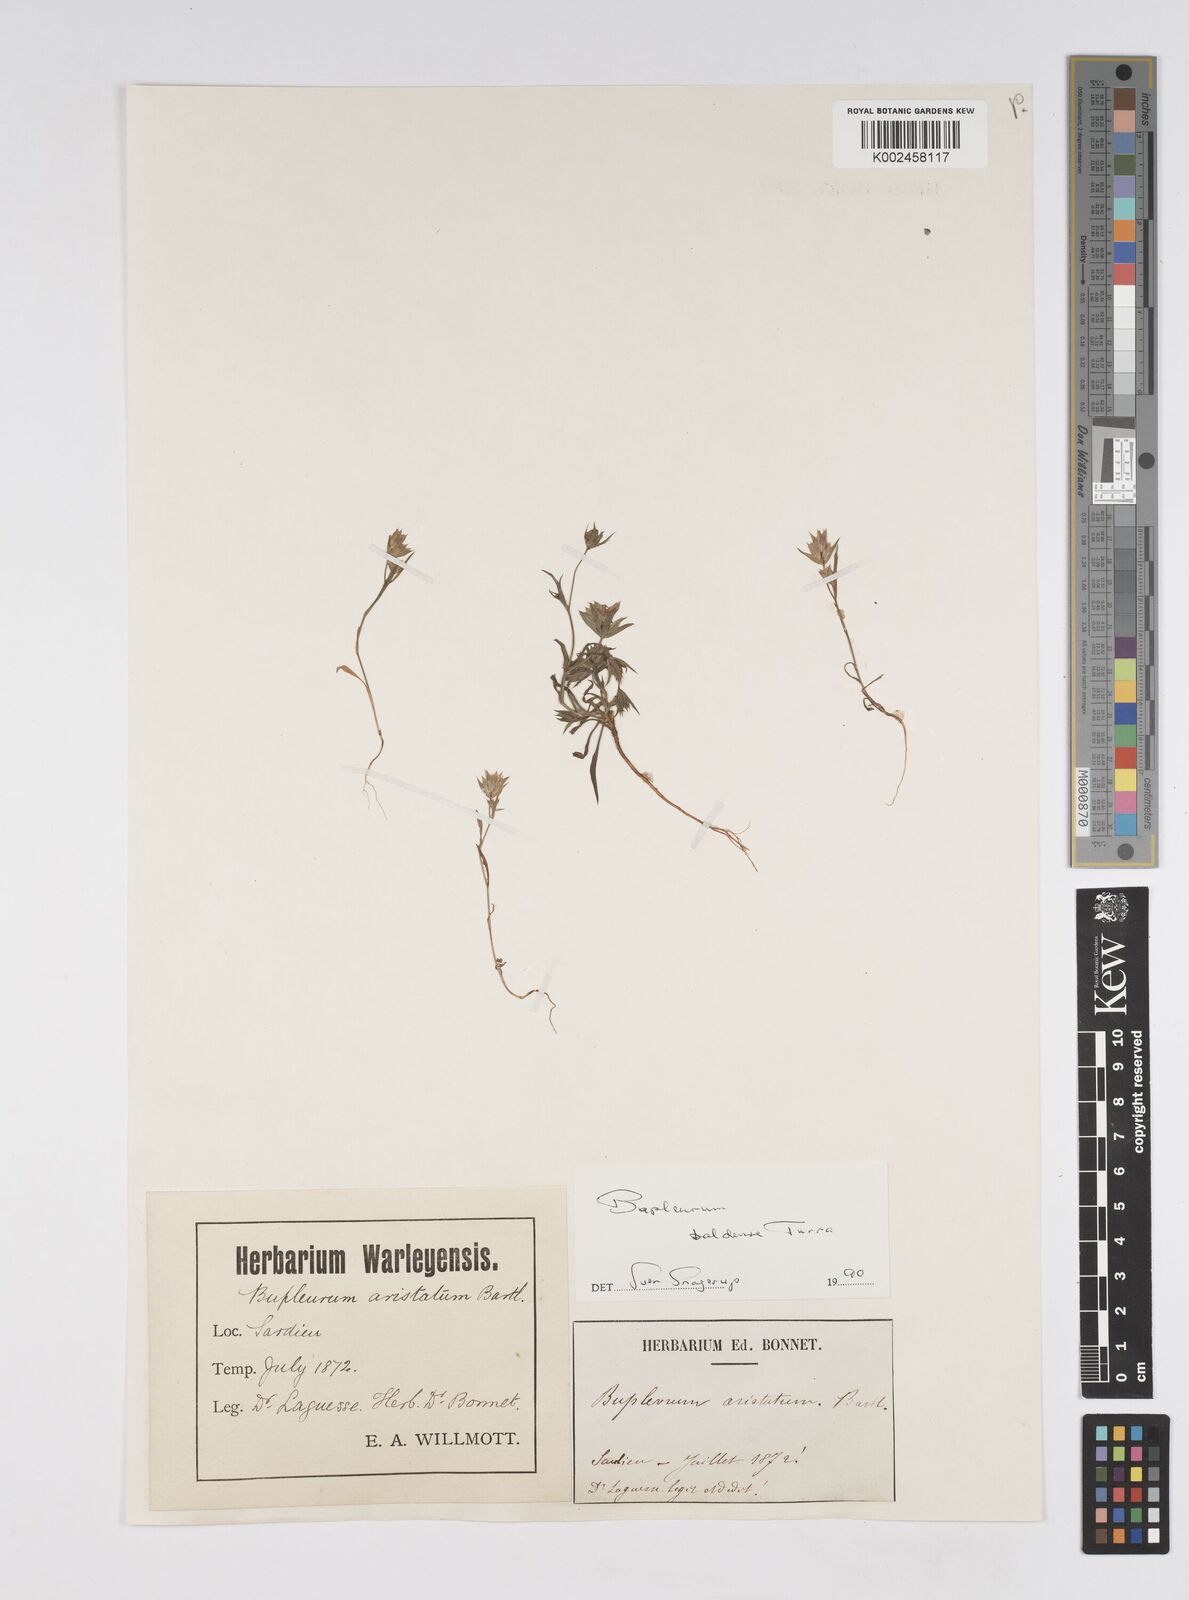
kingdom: Plantae
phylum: Tracheophyta
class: Magnoliopsida
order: Apiales
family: Apiaceae
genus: Bupleurum
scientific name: Bupleurum baldense
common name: Small hare's-ear
